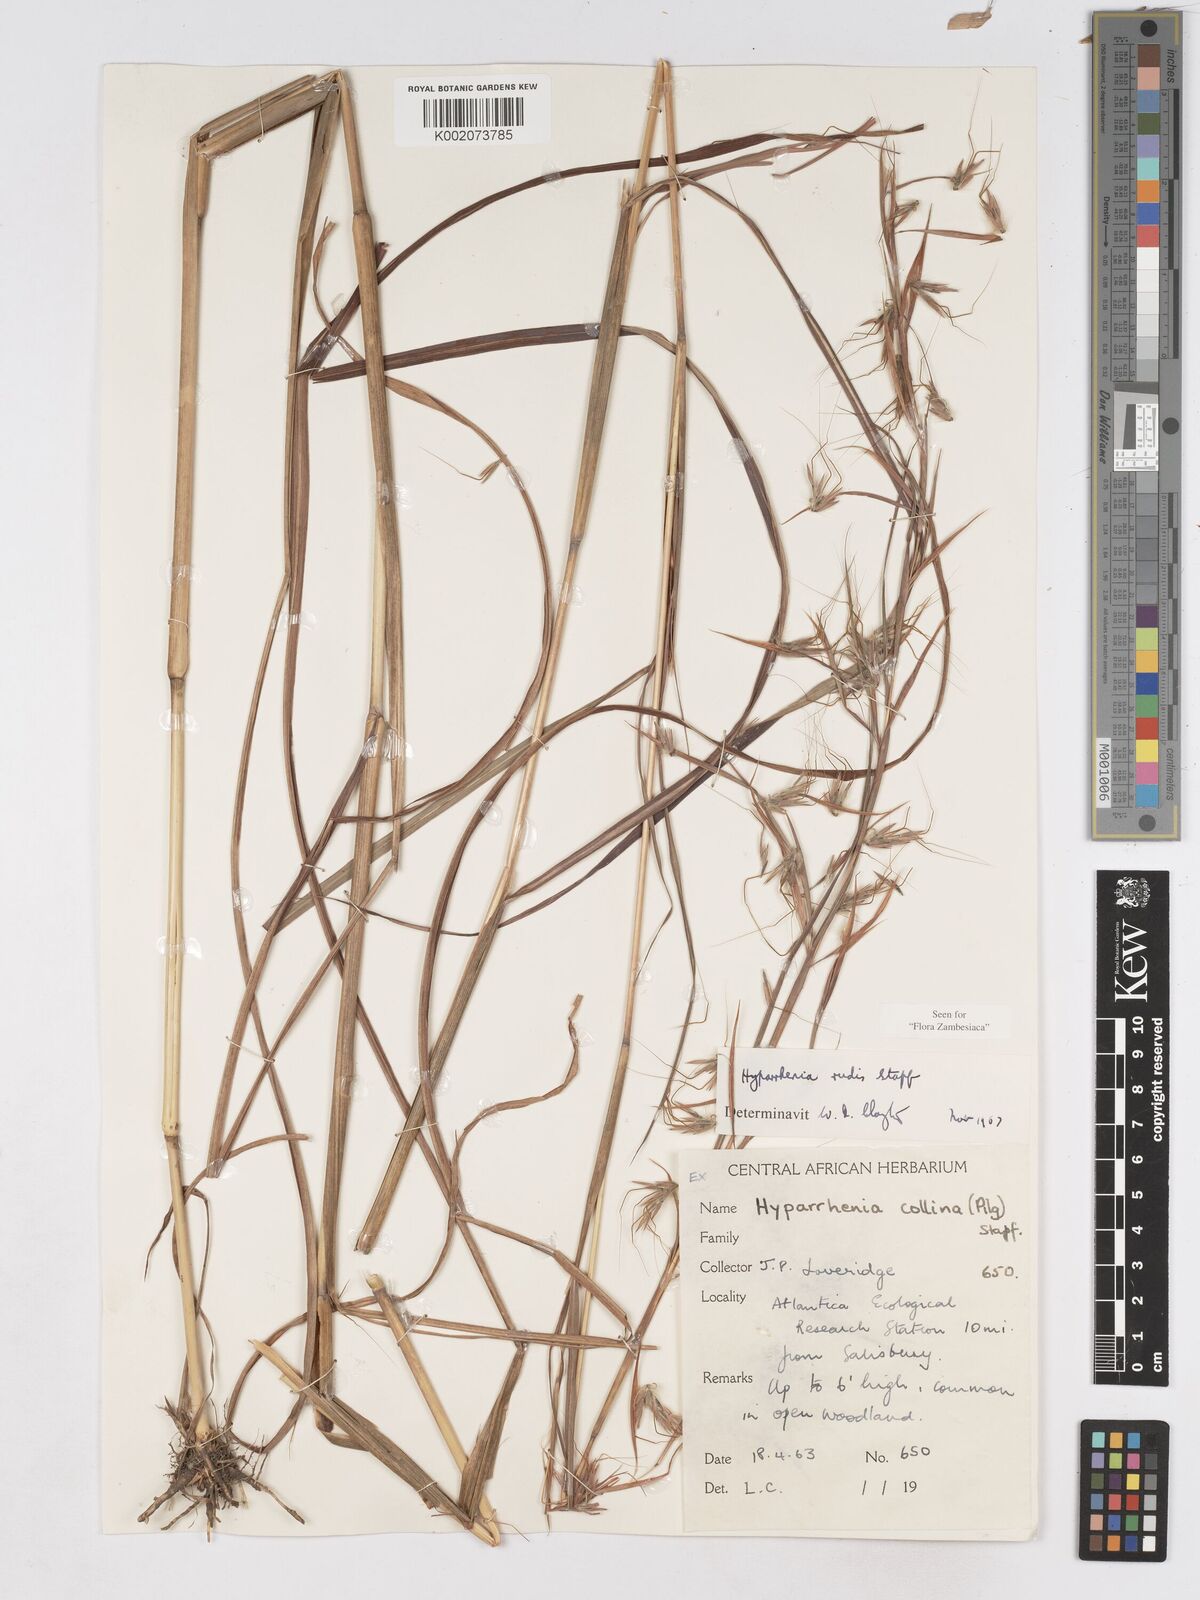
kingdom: Plantae
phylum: Tracheophyta
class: Liliopsida
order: Poales
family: Poaceae
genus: Hyparrhenia
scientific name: Hyparrhenia rudis
